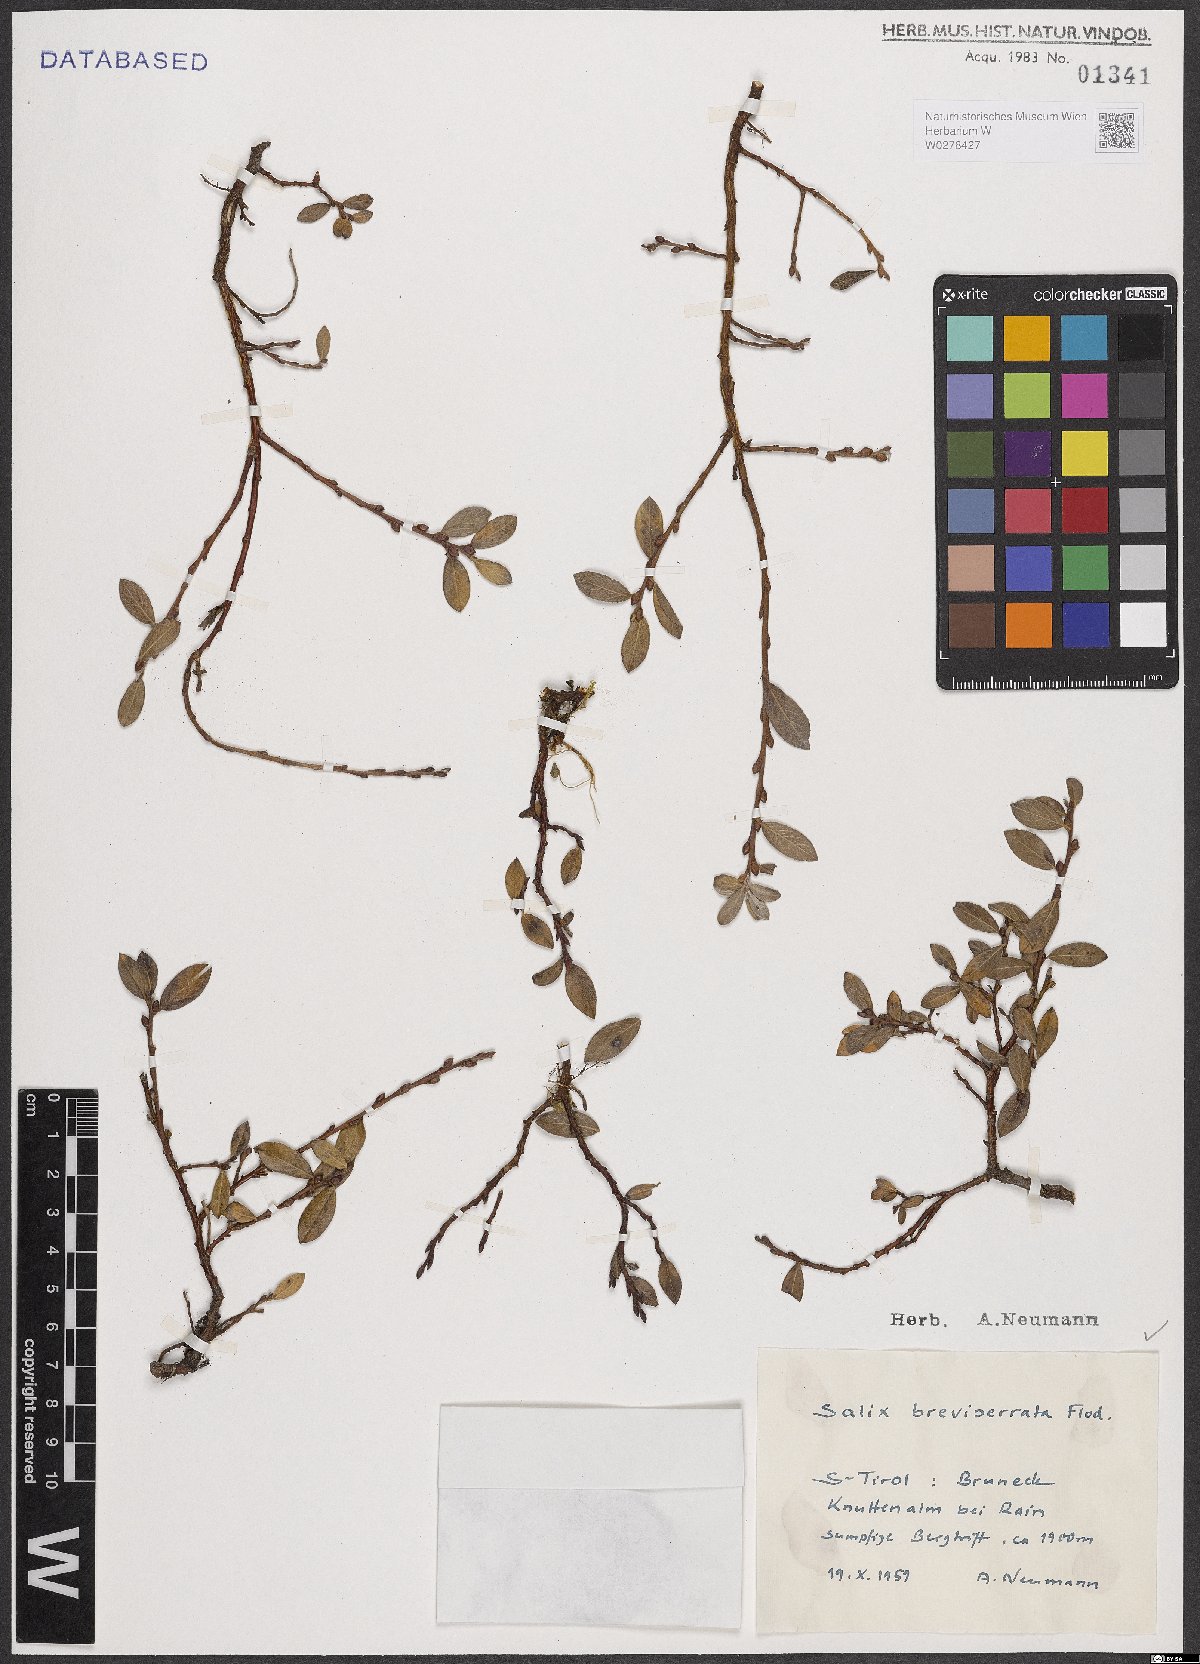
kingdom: Plantae
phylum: Tracheophyta
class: Magnoliopsida
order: Malpighiales
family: Salicaceae
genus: Salix
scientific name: Salix breviserrata
